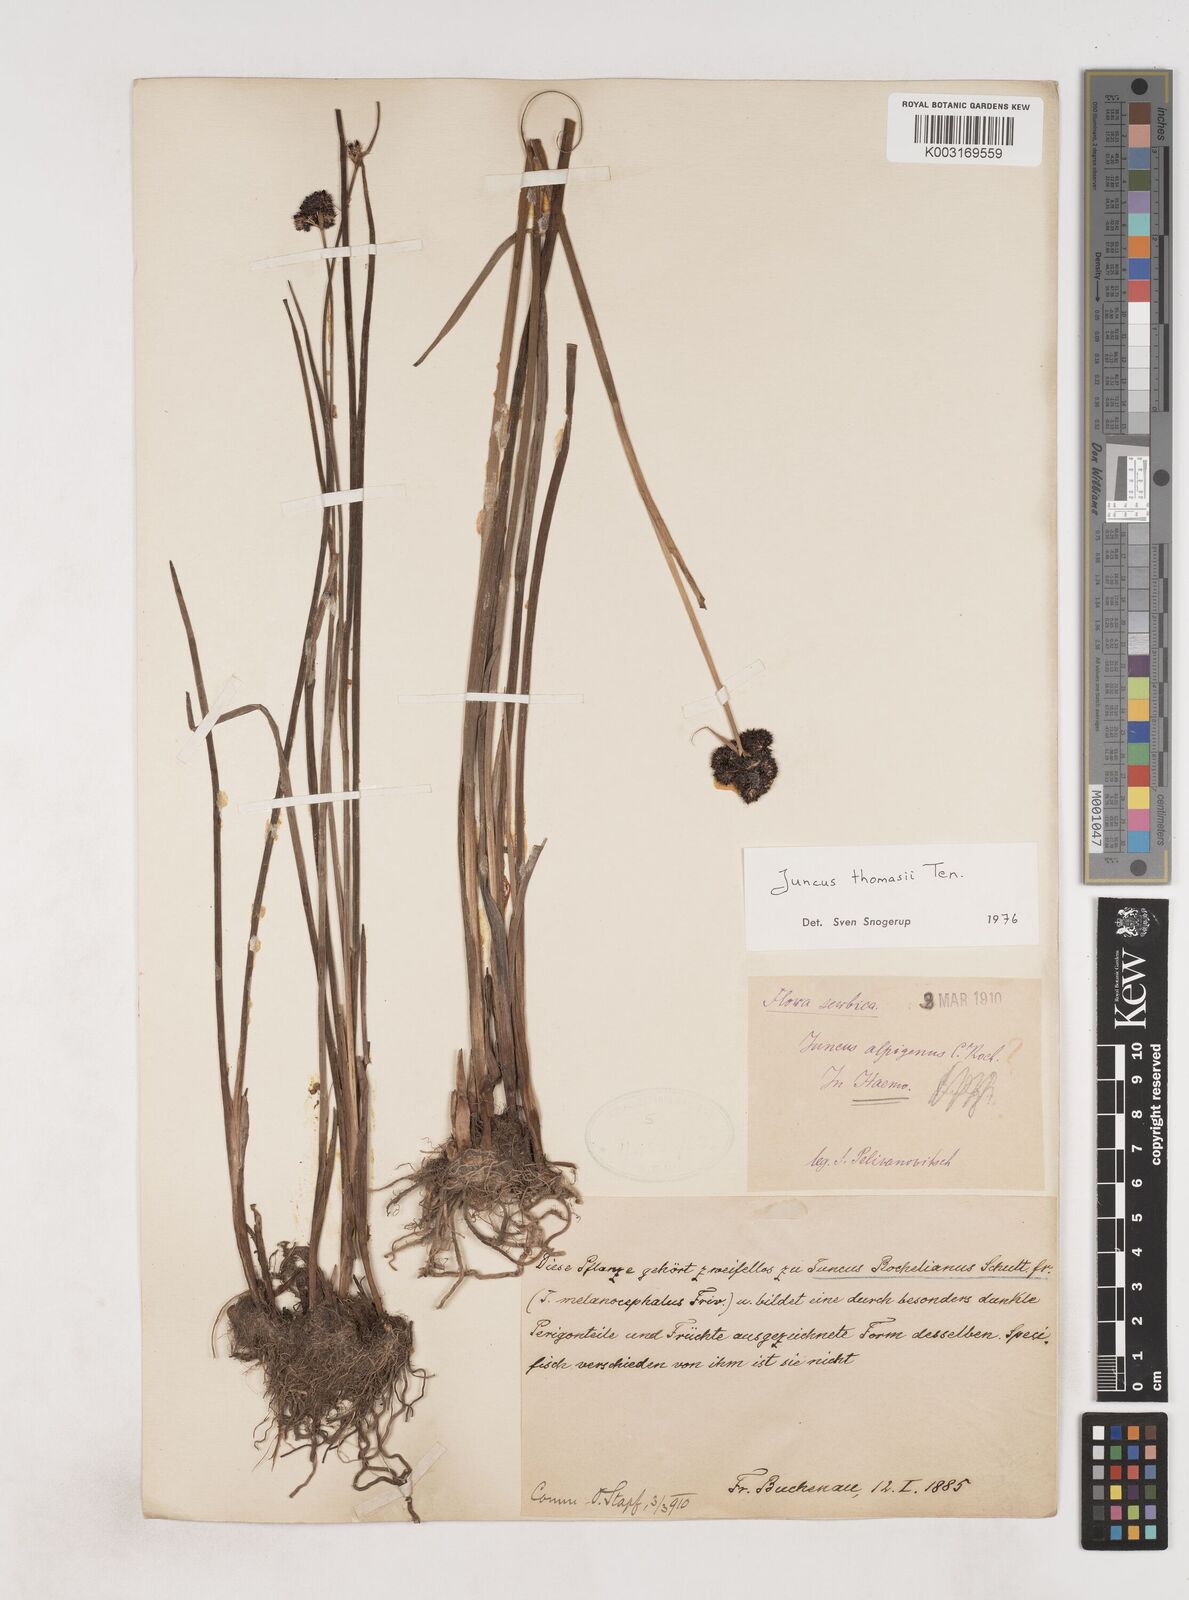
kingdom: Plantae
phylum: Tracheophyta
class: Liliopsida
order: Poales
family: Juncaceae
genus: Juncus
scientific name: Juncus thomasii
